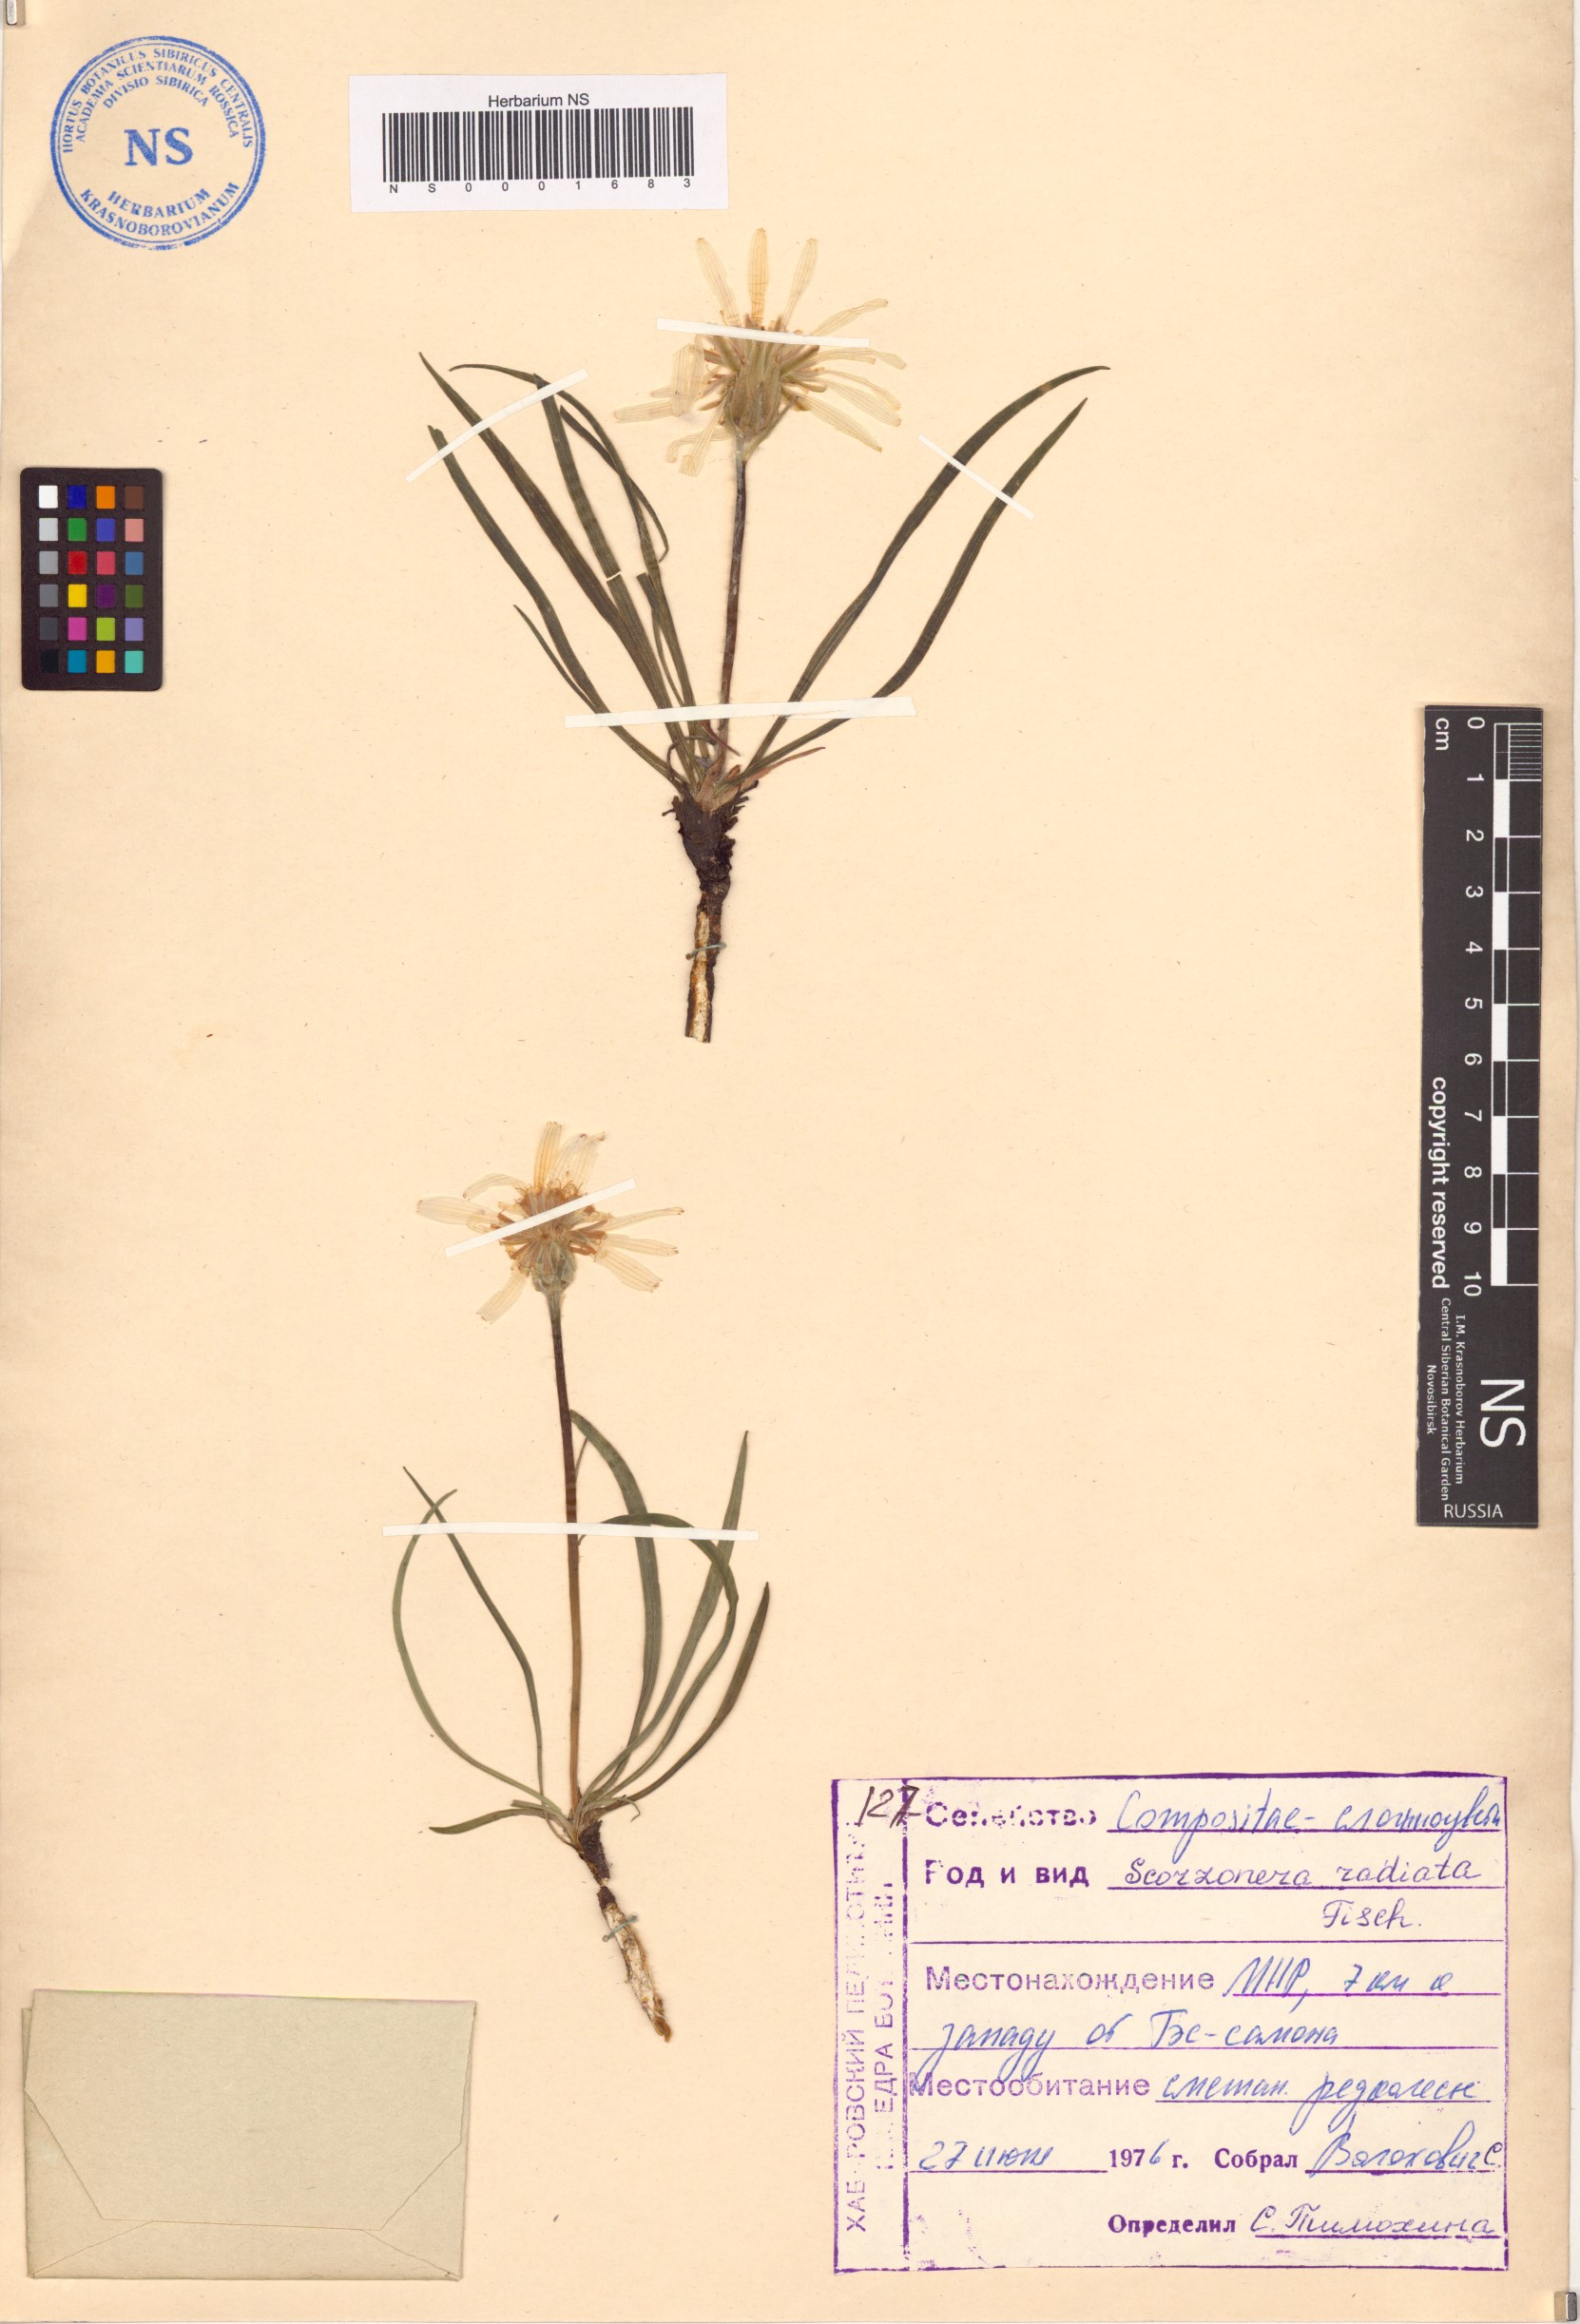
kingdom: Plantae
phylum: Tracheophyta
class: Magnoliopsida
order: Asterales
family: Asteraceae
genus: Scorzonera
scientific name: Scorzonera radiata
